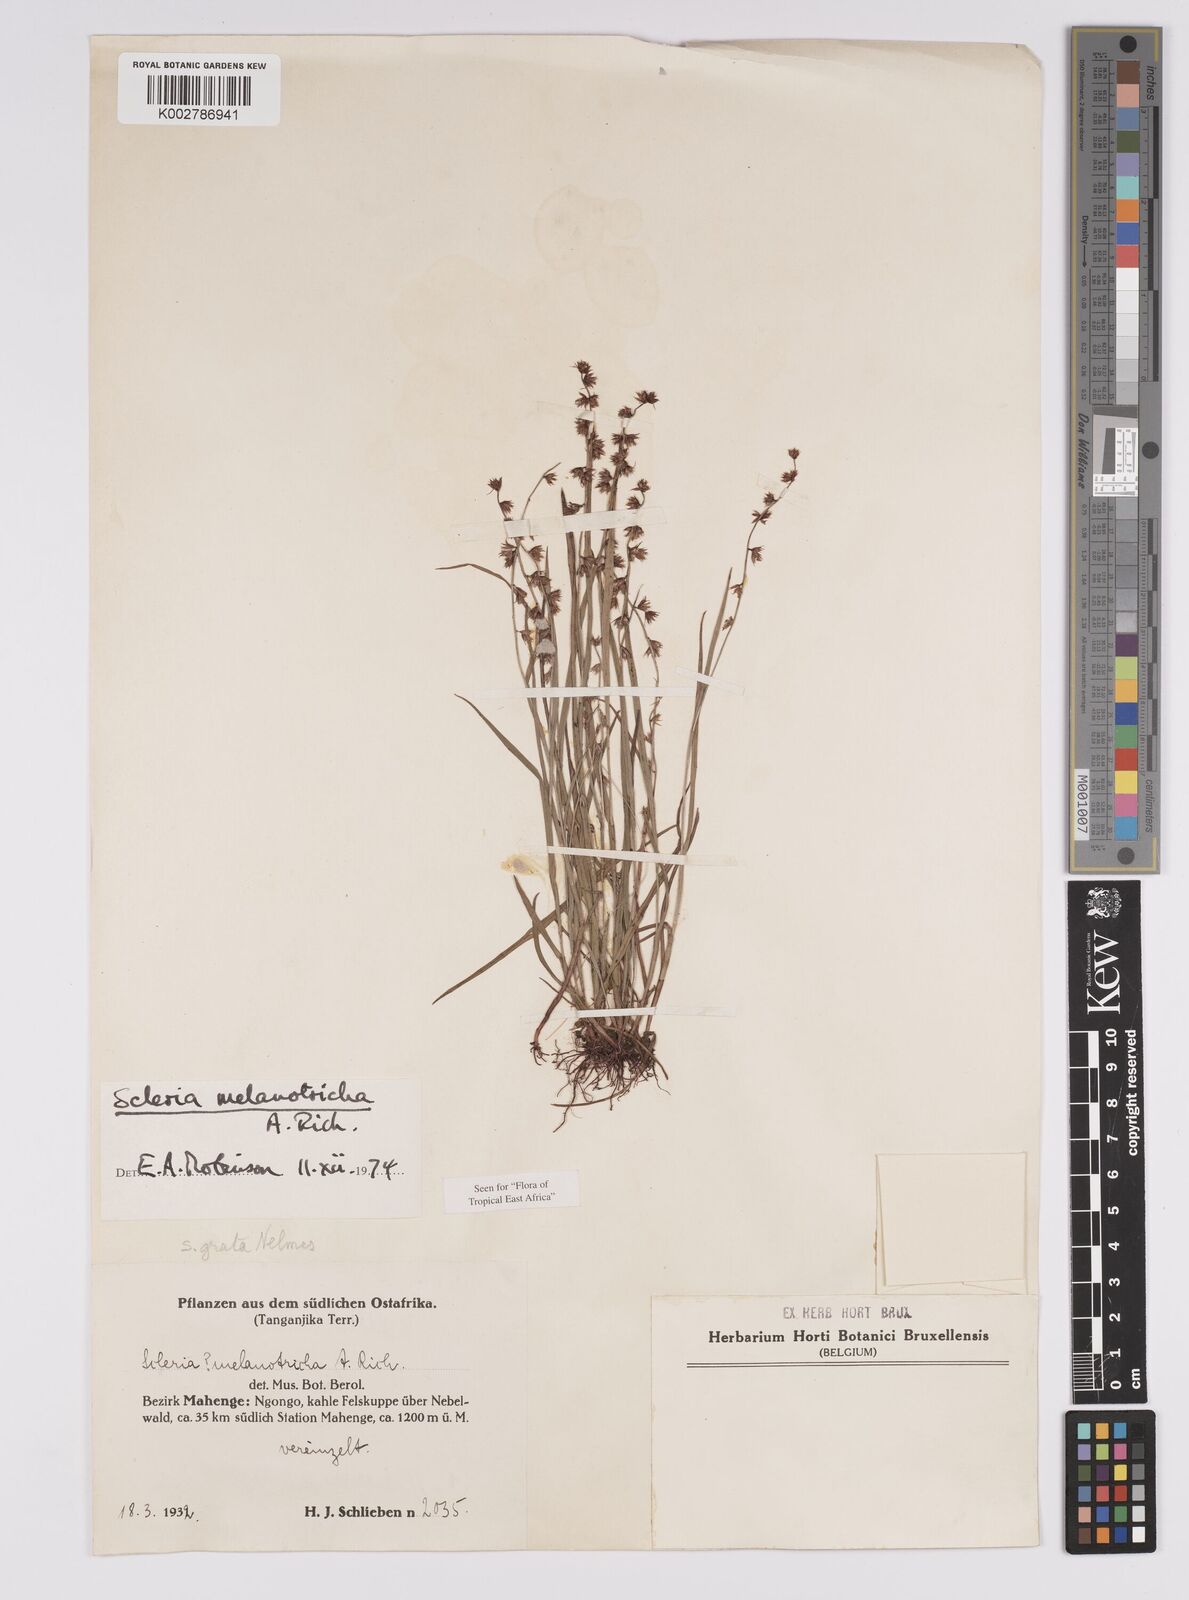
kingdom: Plantae
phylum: Tracheophyta
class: Liliopsida
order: Poales
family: Cyperaceae
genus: Scleria
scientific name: Scleria melanotricha
